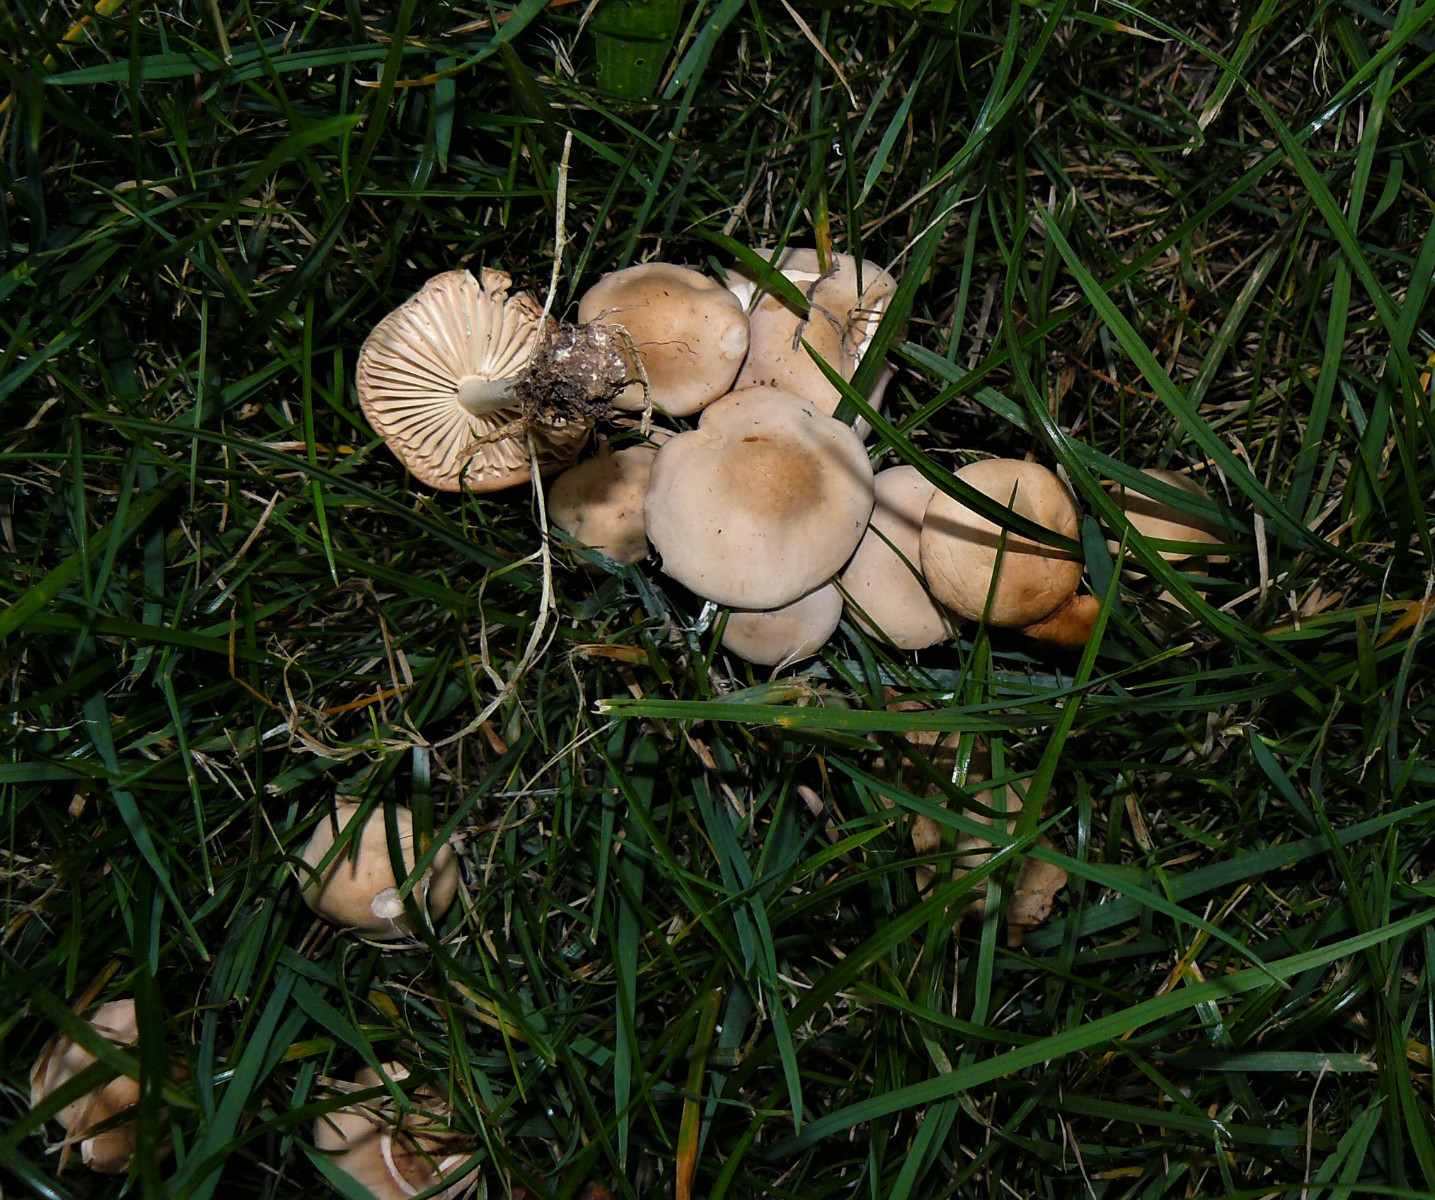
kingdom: Fungi
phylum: Basidiomycota
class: Agaricomycetes
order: Agaricales
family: Marasmiaceae
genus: Marasmius
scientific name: Marasmius oreades
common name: elledans-bruskhat
